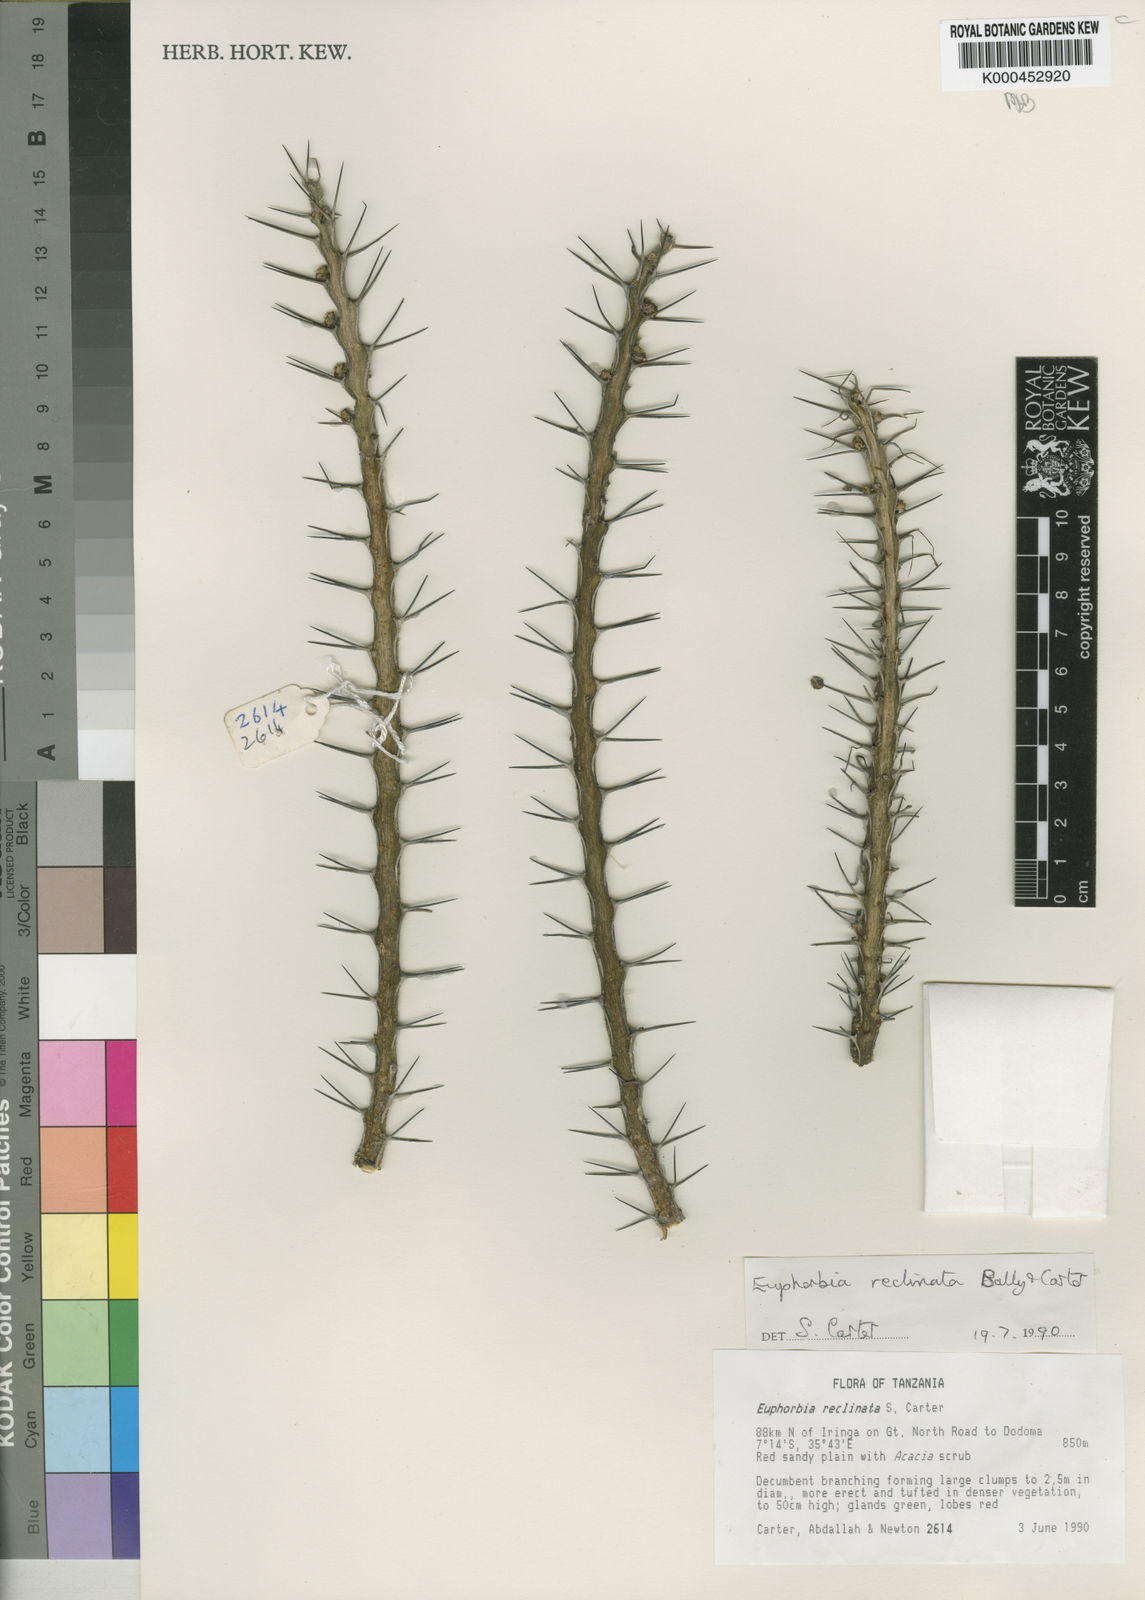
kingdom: Plantae
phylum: Tracheophyta
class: Magnoliopsida
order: Malpighiales
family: Euphorbiaceae
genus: Euphorbia
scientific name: Euphorbia reclinata
